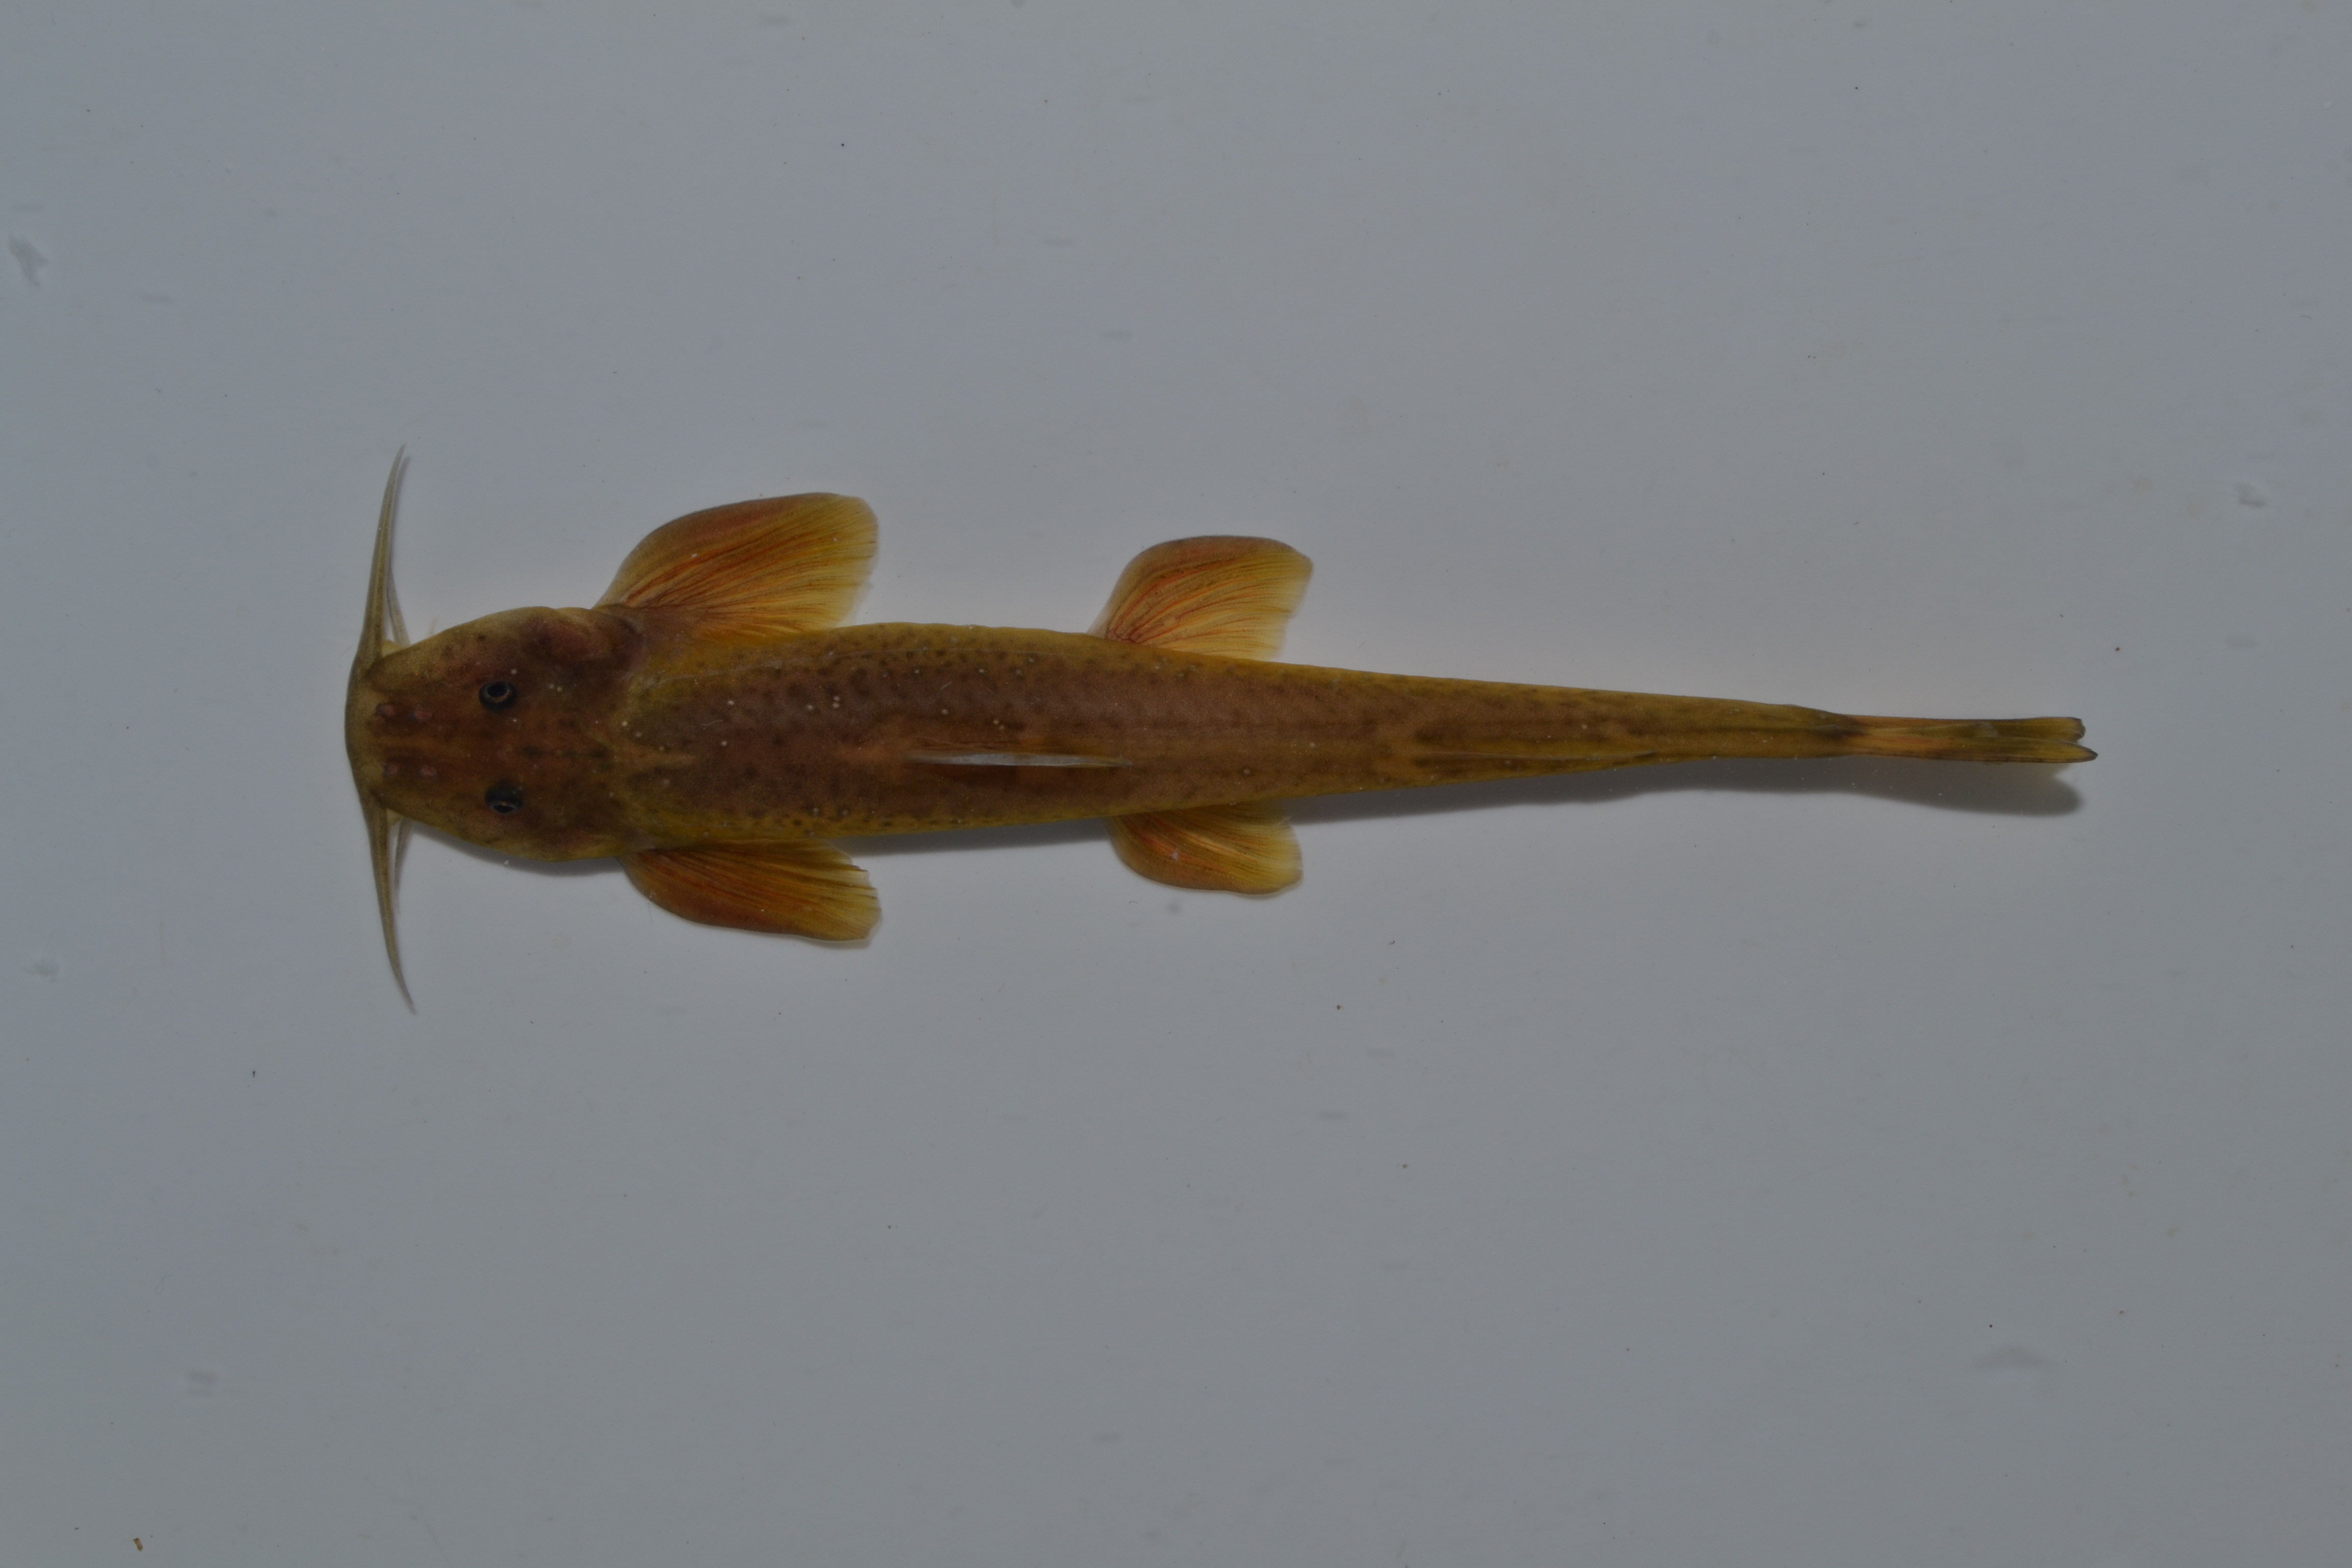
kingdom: Animalia
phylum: Chordata
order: Siluriformes
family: Amphiliidae
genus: Amphilius
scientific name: Amphilius natalensis
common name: Natal mountain catfish
